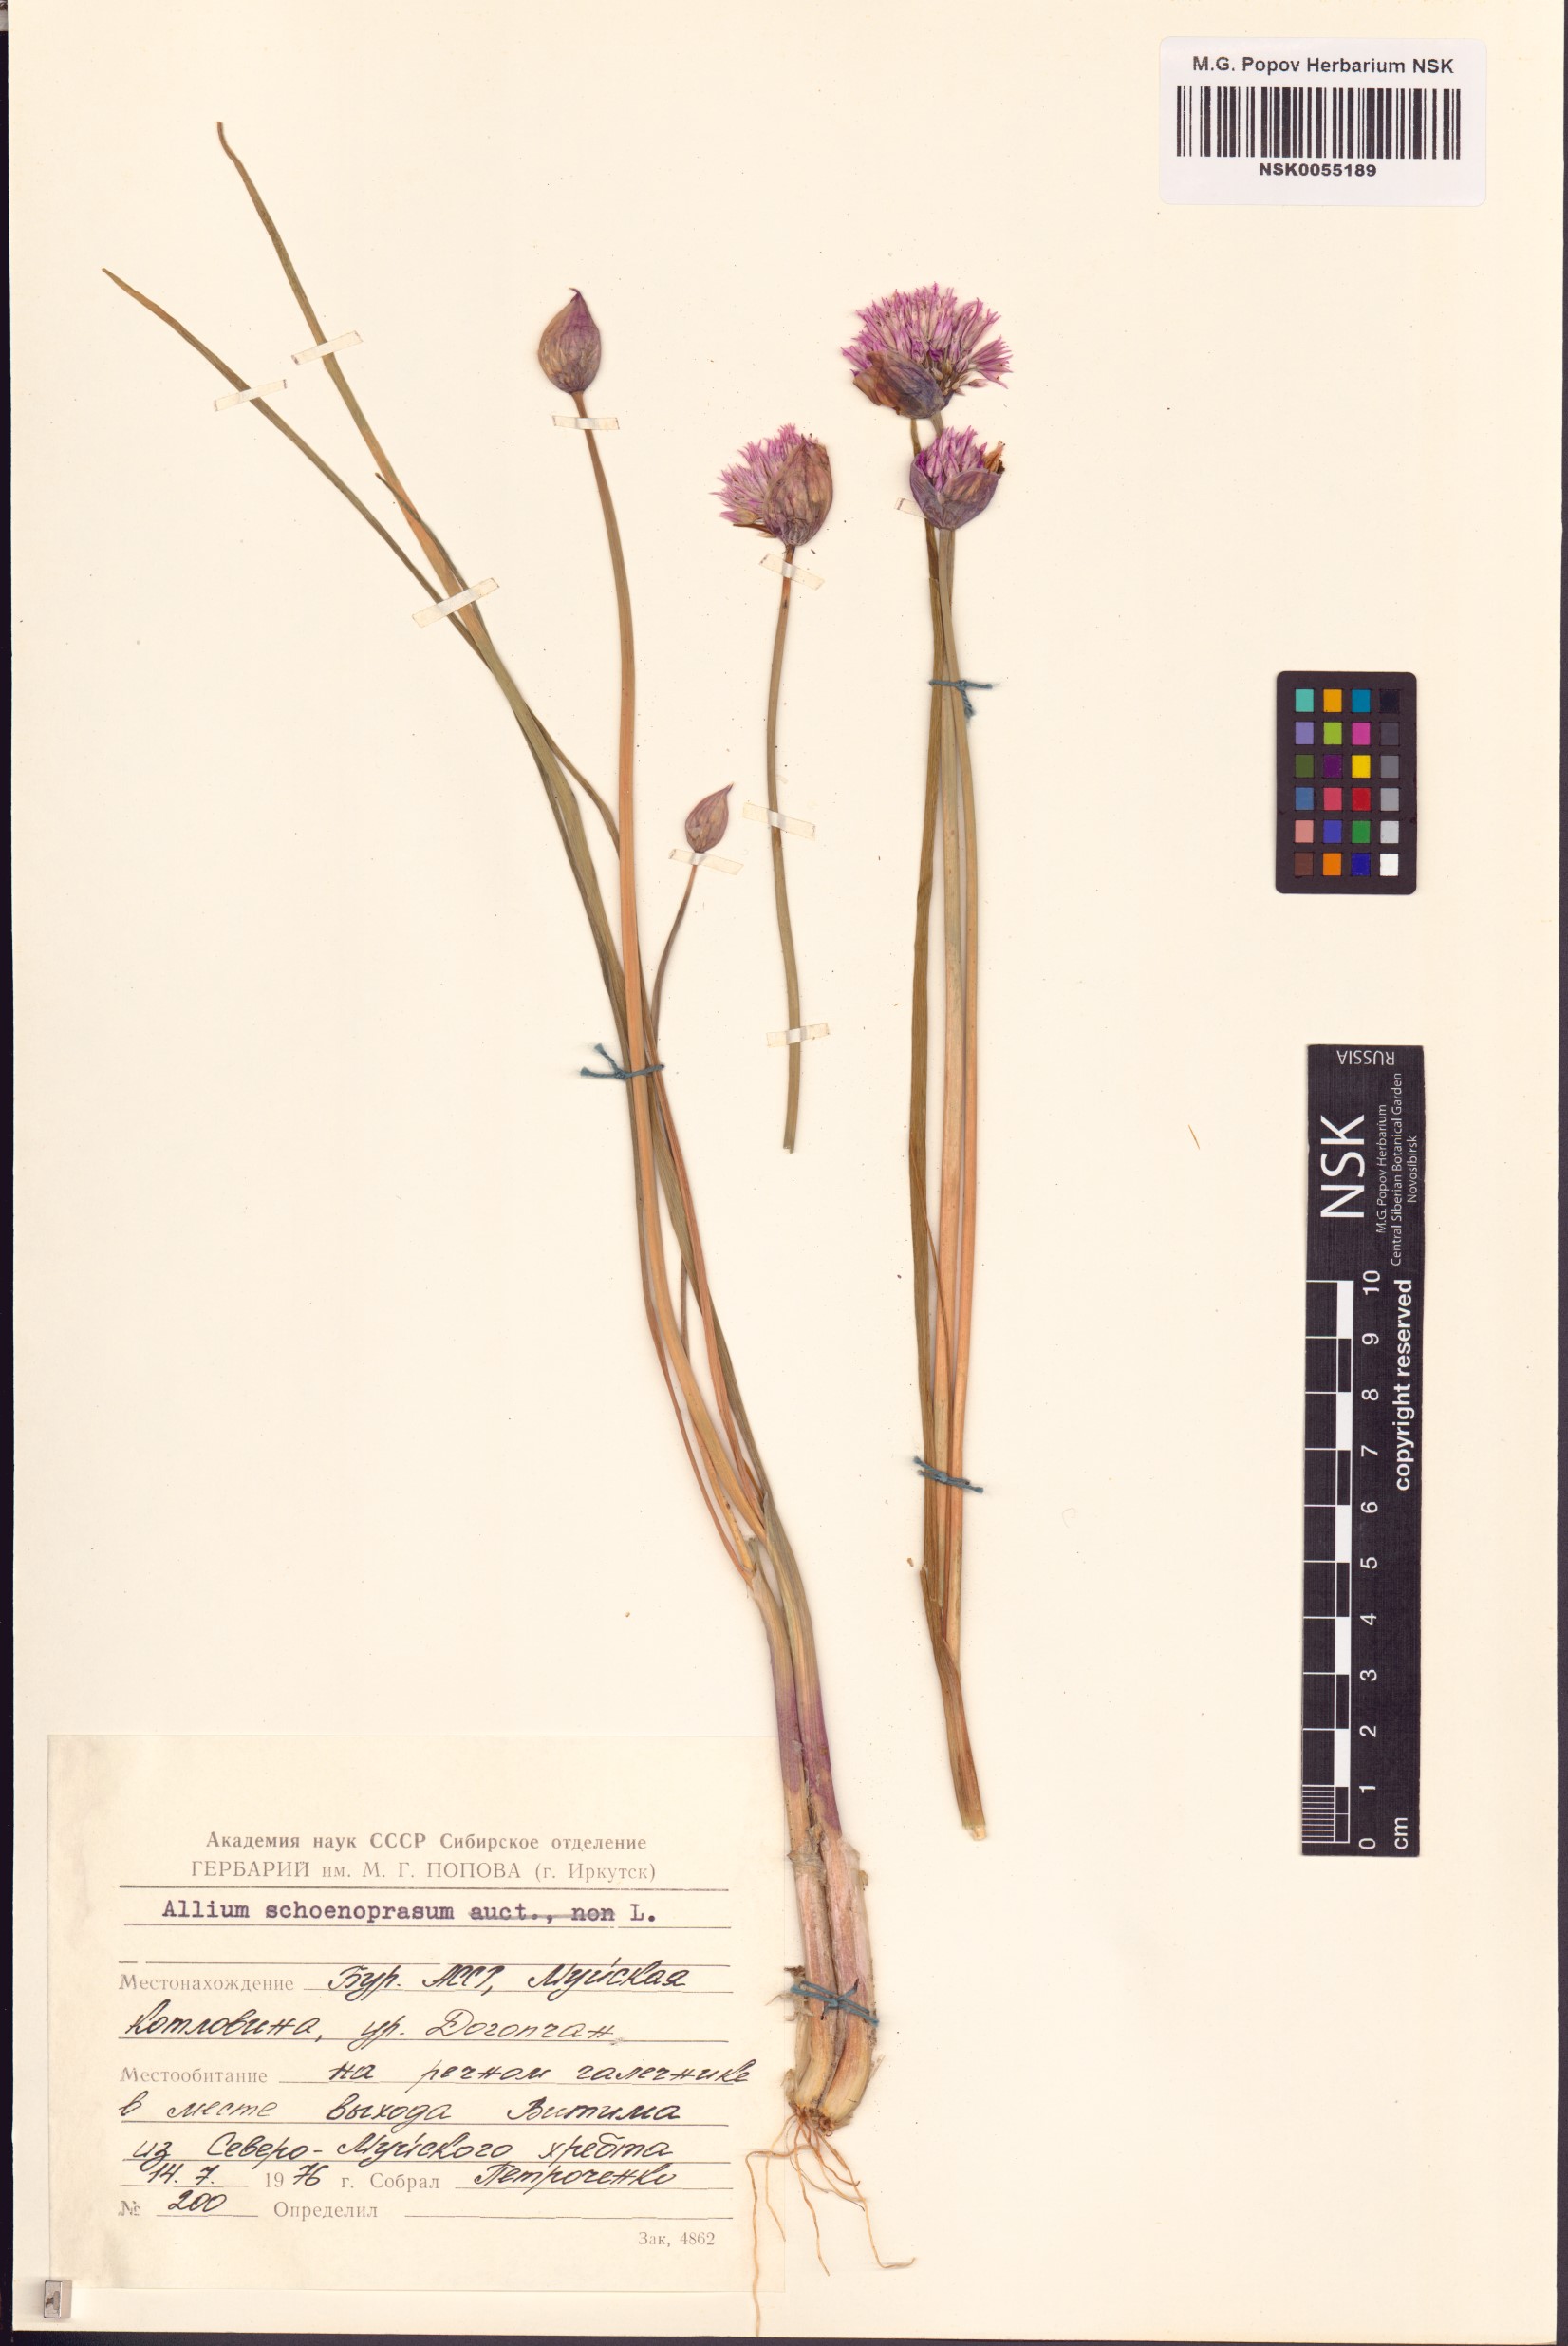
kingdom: Plantae
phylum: Tracheophyta
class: Liliopsida
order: Asparagales
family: Amaryllidaceae
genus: Allium
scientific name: Allium schoenoprasum
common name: Chives
